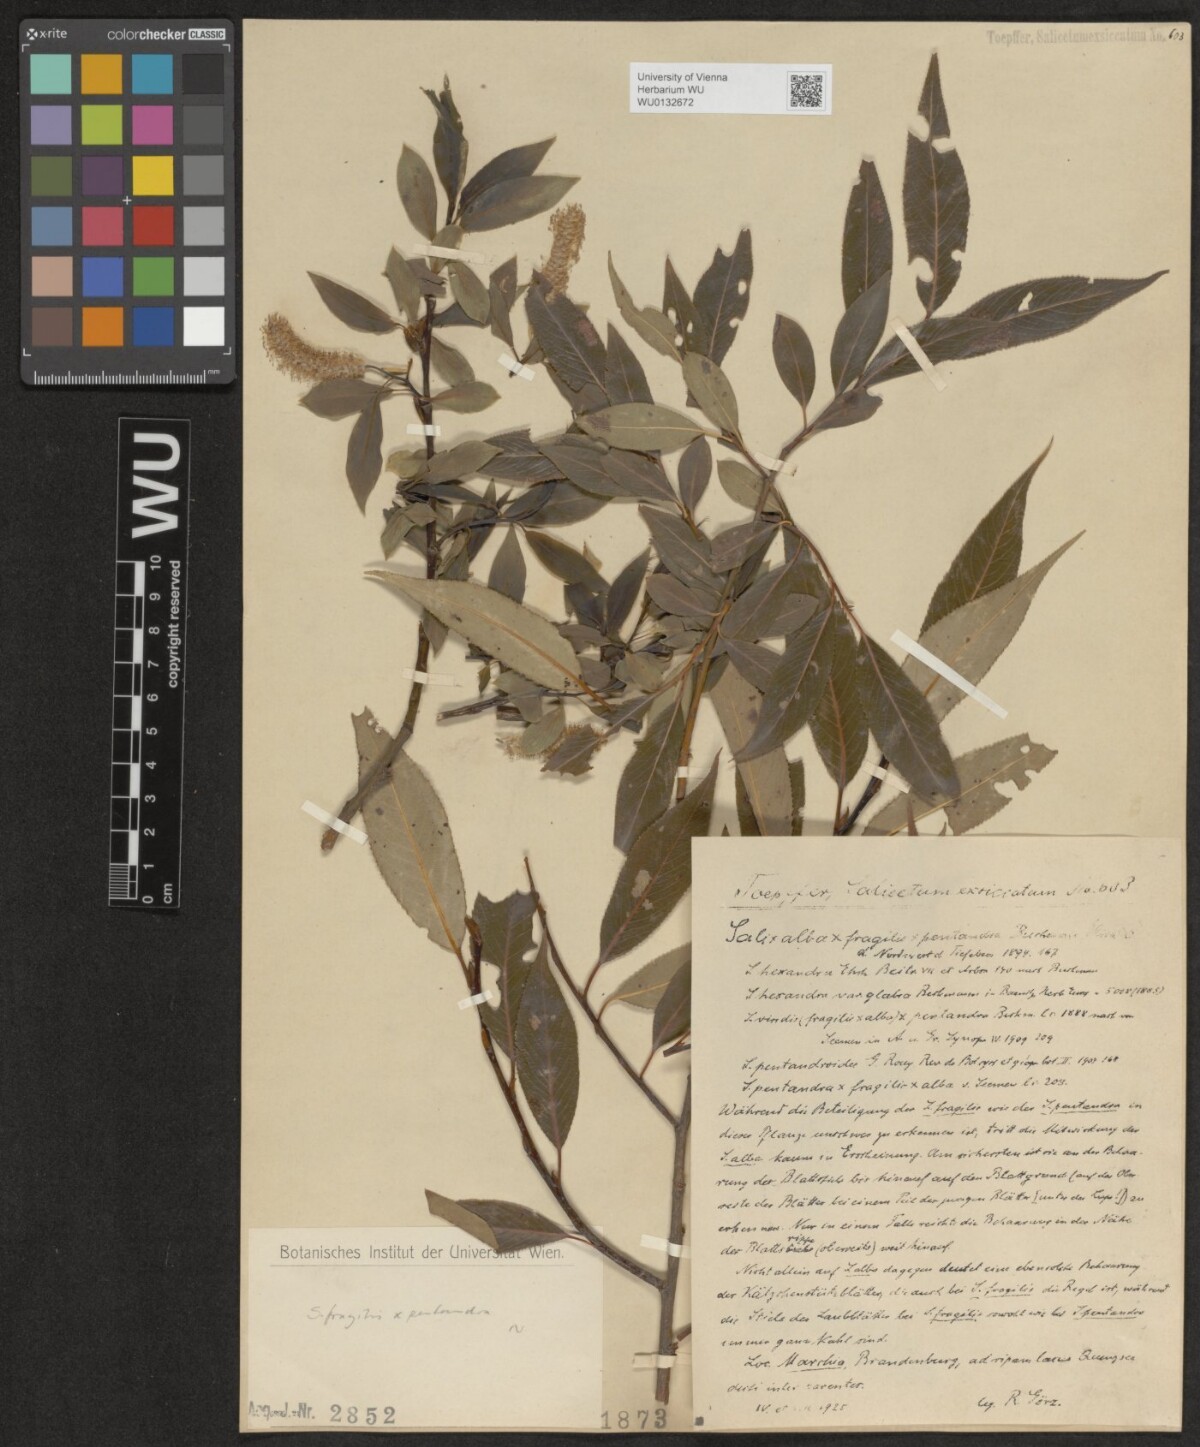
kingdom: Plantae
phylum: Tracheophyta
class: Magnoliopsida
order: Malpighiales
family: Salicaceae
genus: Salix
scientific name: Salix
